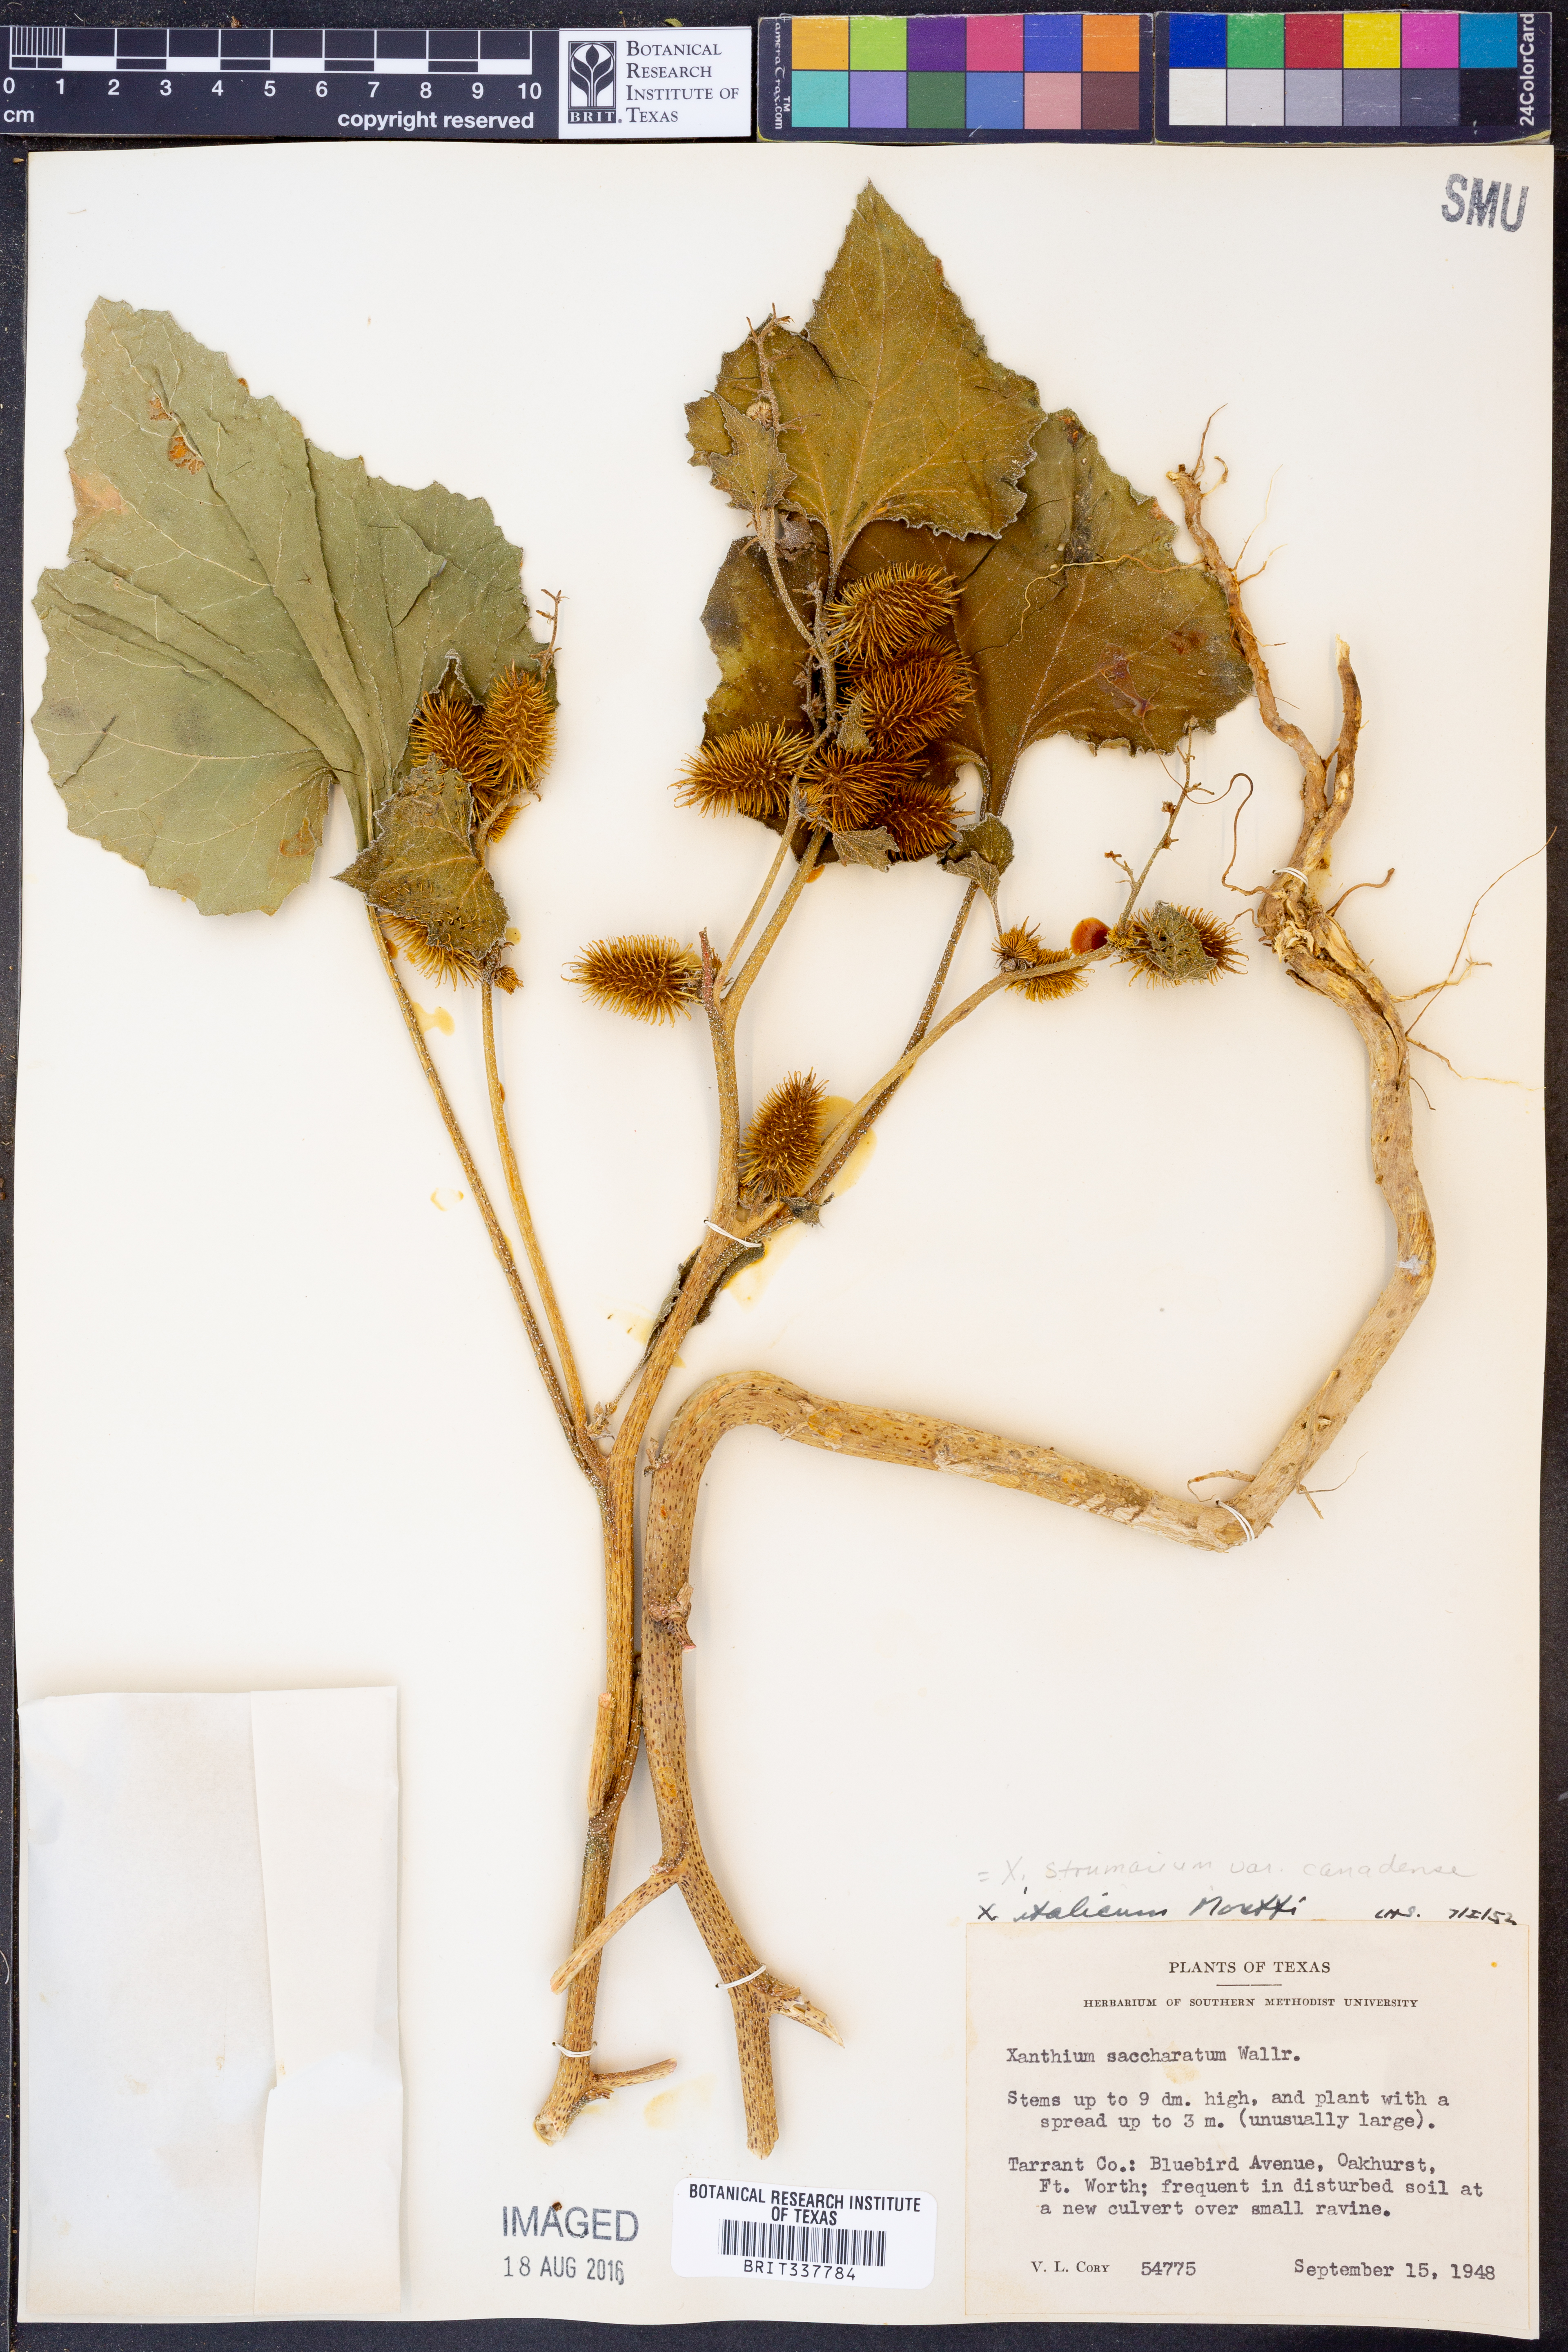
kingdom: Plantae
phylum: Tracheophyta
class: Magnoliopsida
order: Asterales
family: Asteraceae
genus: Xanthium
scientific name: Xanthium orientale
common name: Californian burr
